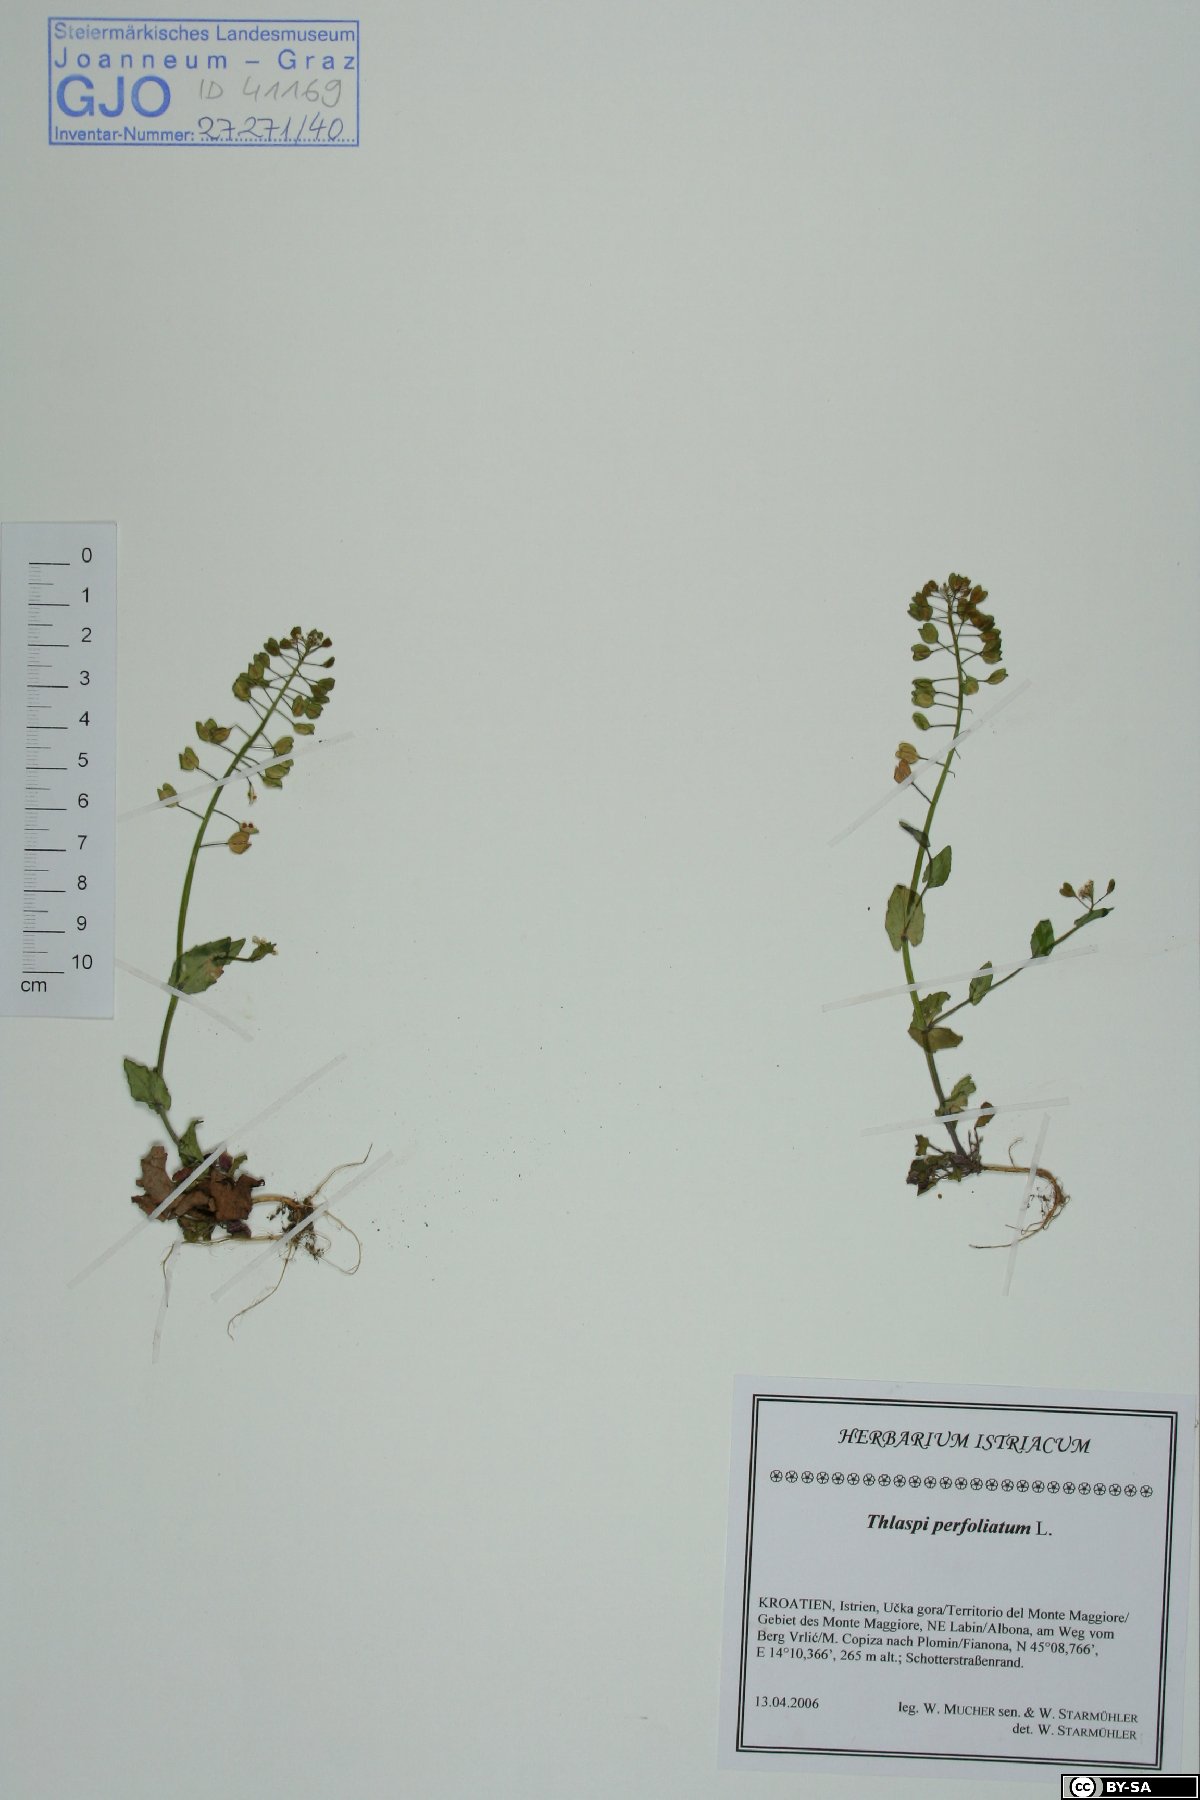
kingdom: Plantae
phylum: Tracheophyta
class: Magnoliopsida
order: Brassicales
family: Brassicaceae
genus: Noccaea
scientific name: Noccaea perfoliata
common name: Perfoliate pennycress
